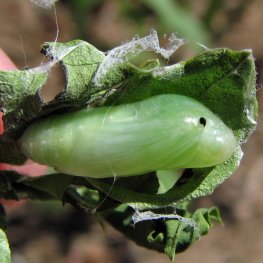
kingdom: Animalia
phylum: Arthropoda
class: Insecta
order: Lepidoptera
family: Hesperiidae
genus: Gesta
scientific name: Gesta
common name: Wild Indigo Duskywing
